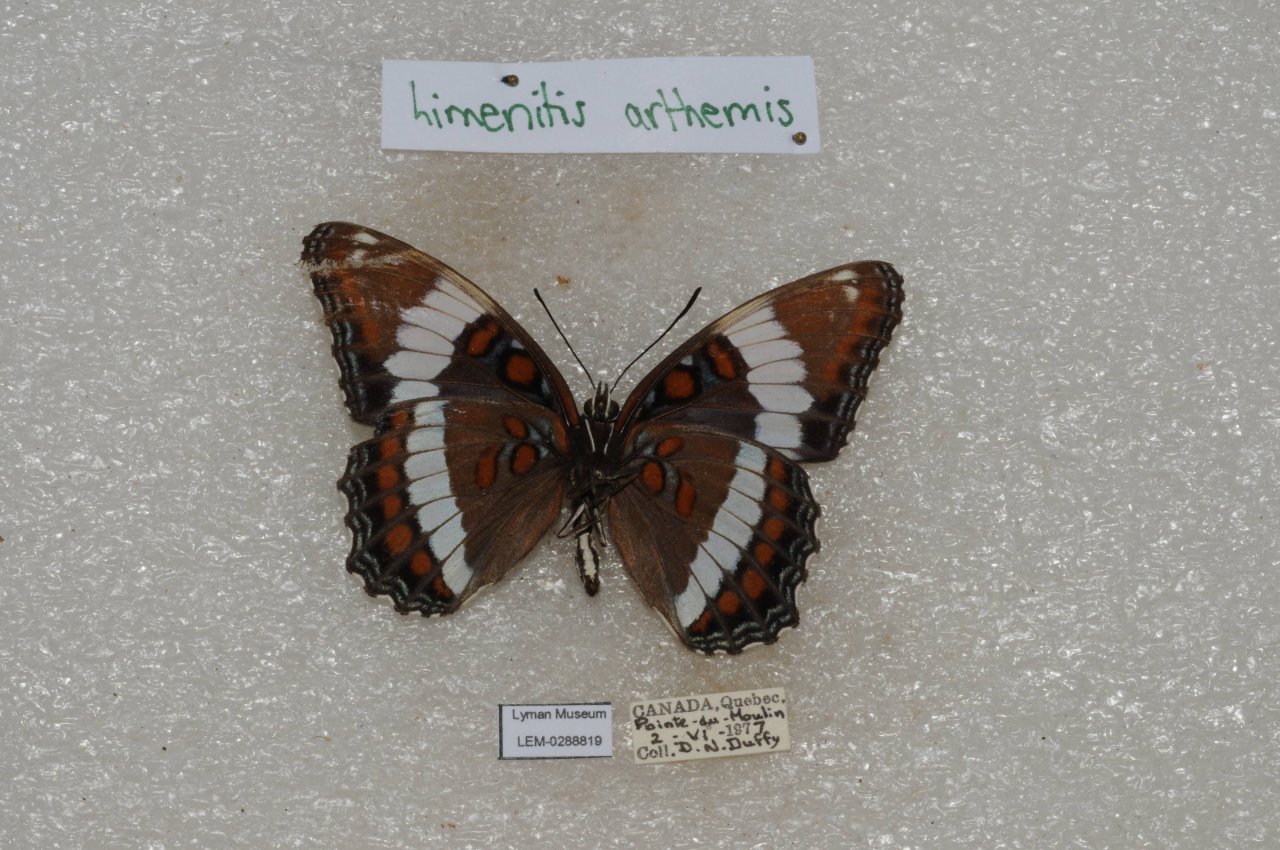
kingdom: Animalia
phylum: Arthropoda
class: Insecta
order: Lepidoptera
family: Nymphalidae
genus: Limenitis
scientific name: Limenitis arthemis
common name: Red-spotted Admiral
